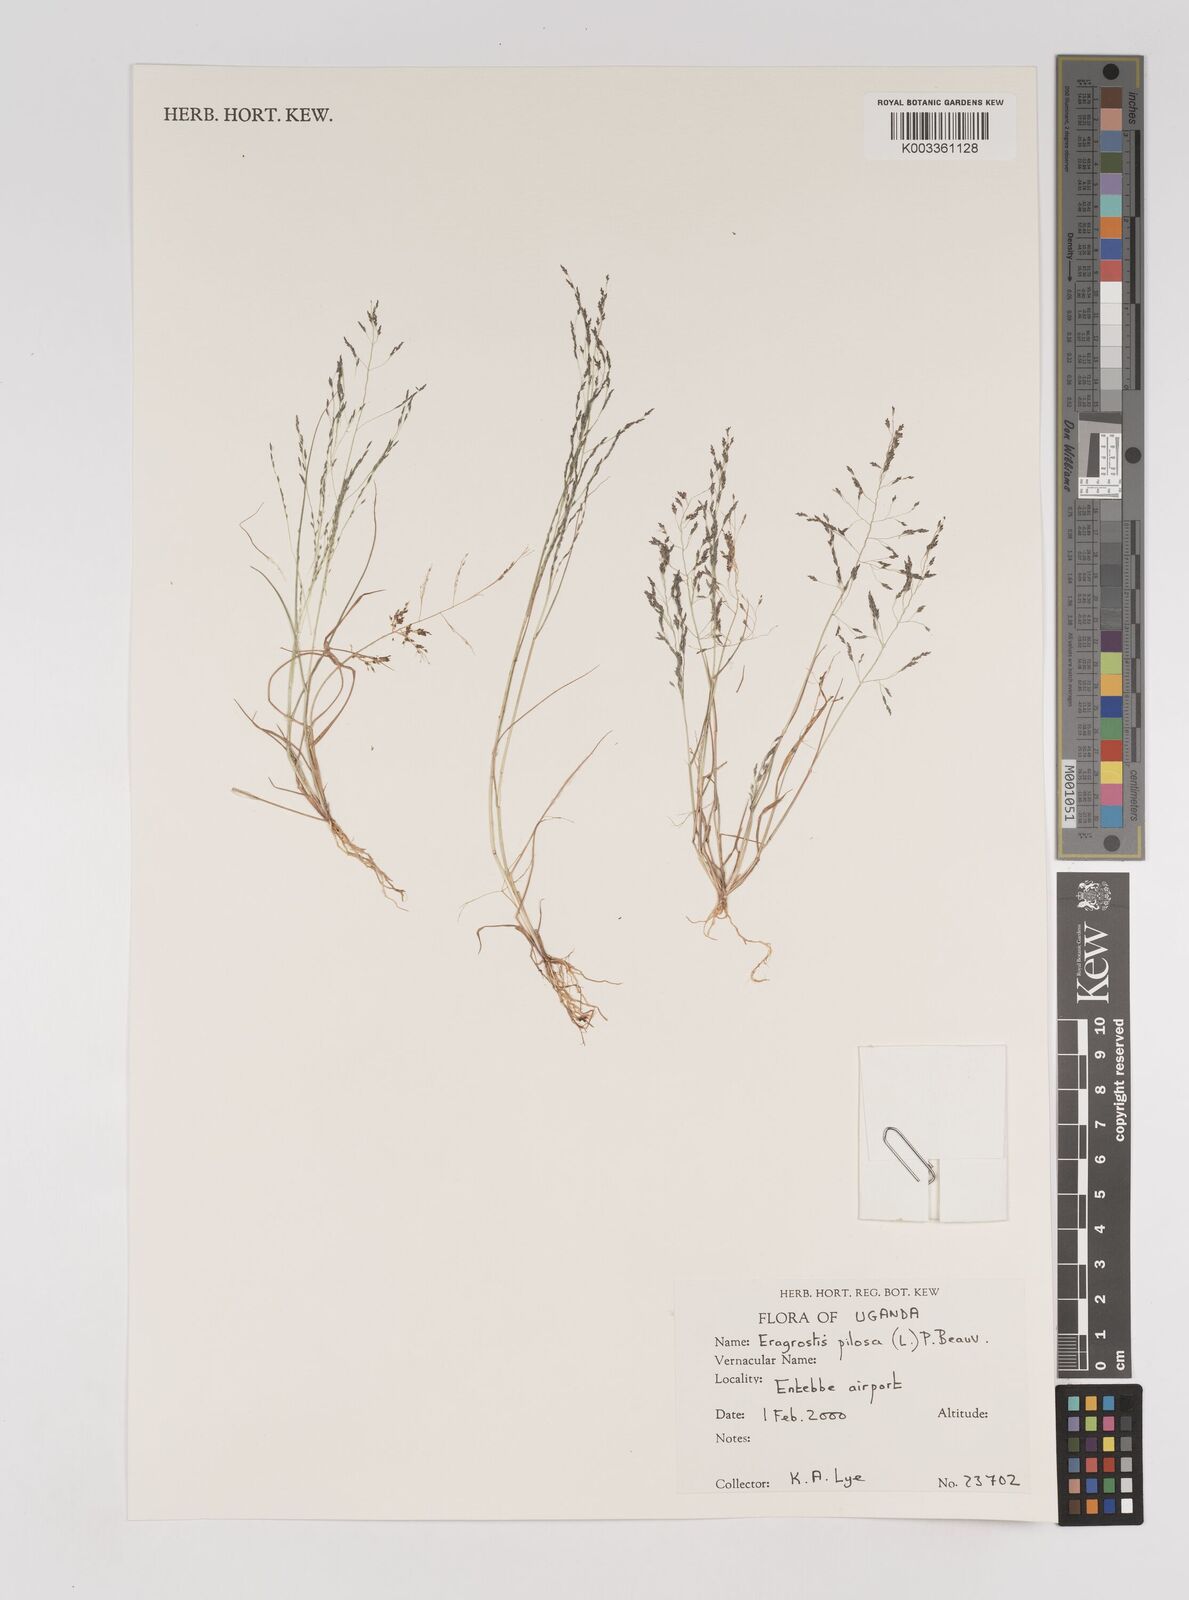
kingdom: Plantae
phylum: Tracheophyta
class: Liliopsida
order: Poales
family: Poaceae
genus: Eragrostis
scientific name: Eragrostis pilosa
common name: Indian lovegrass
